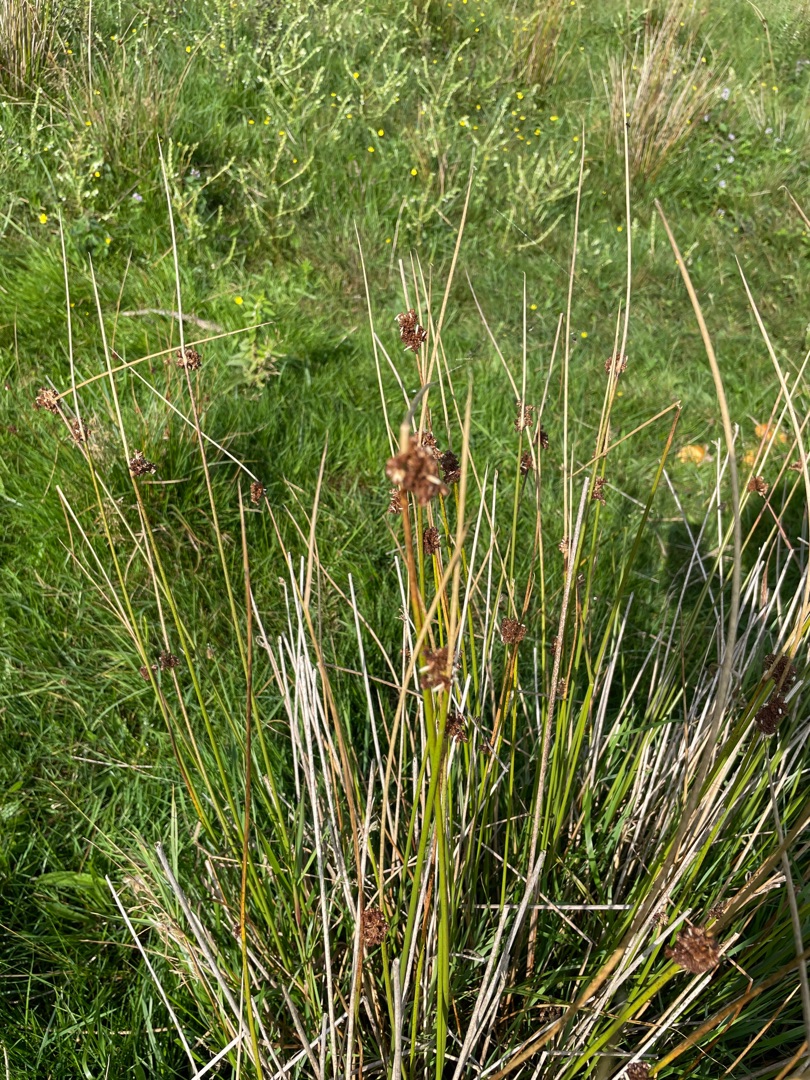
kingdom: Plantae
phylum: Tracheophyta
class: Liliopsida
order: Poales
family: Juncaceae
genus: Juncus
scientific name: Juncus effusus
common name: Lyse-siv
